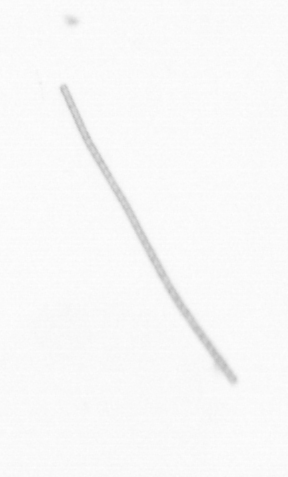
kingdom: Chromista
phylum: Ochrophyta
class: Bacillariophyceae
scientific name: Bacillariophyceae
